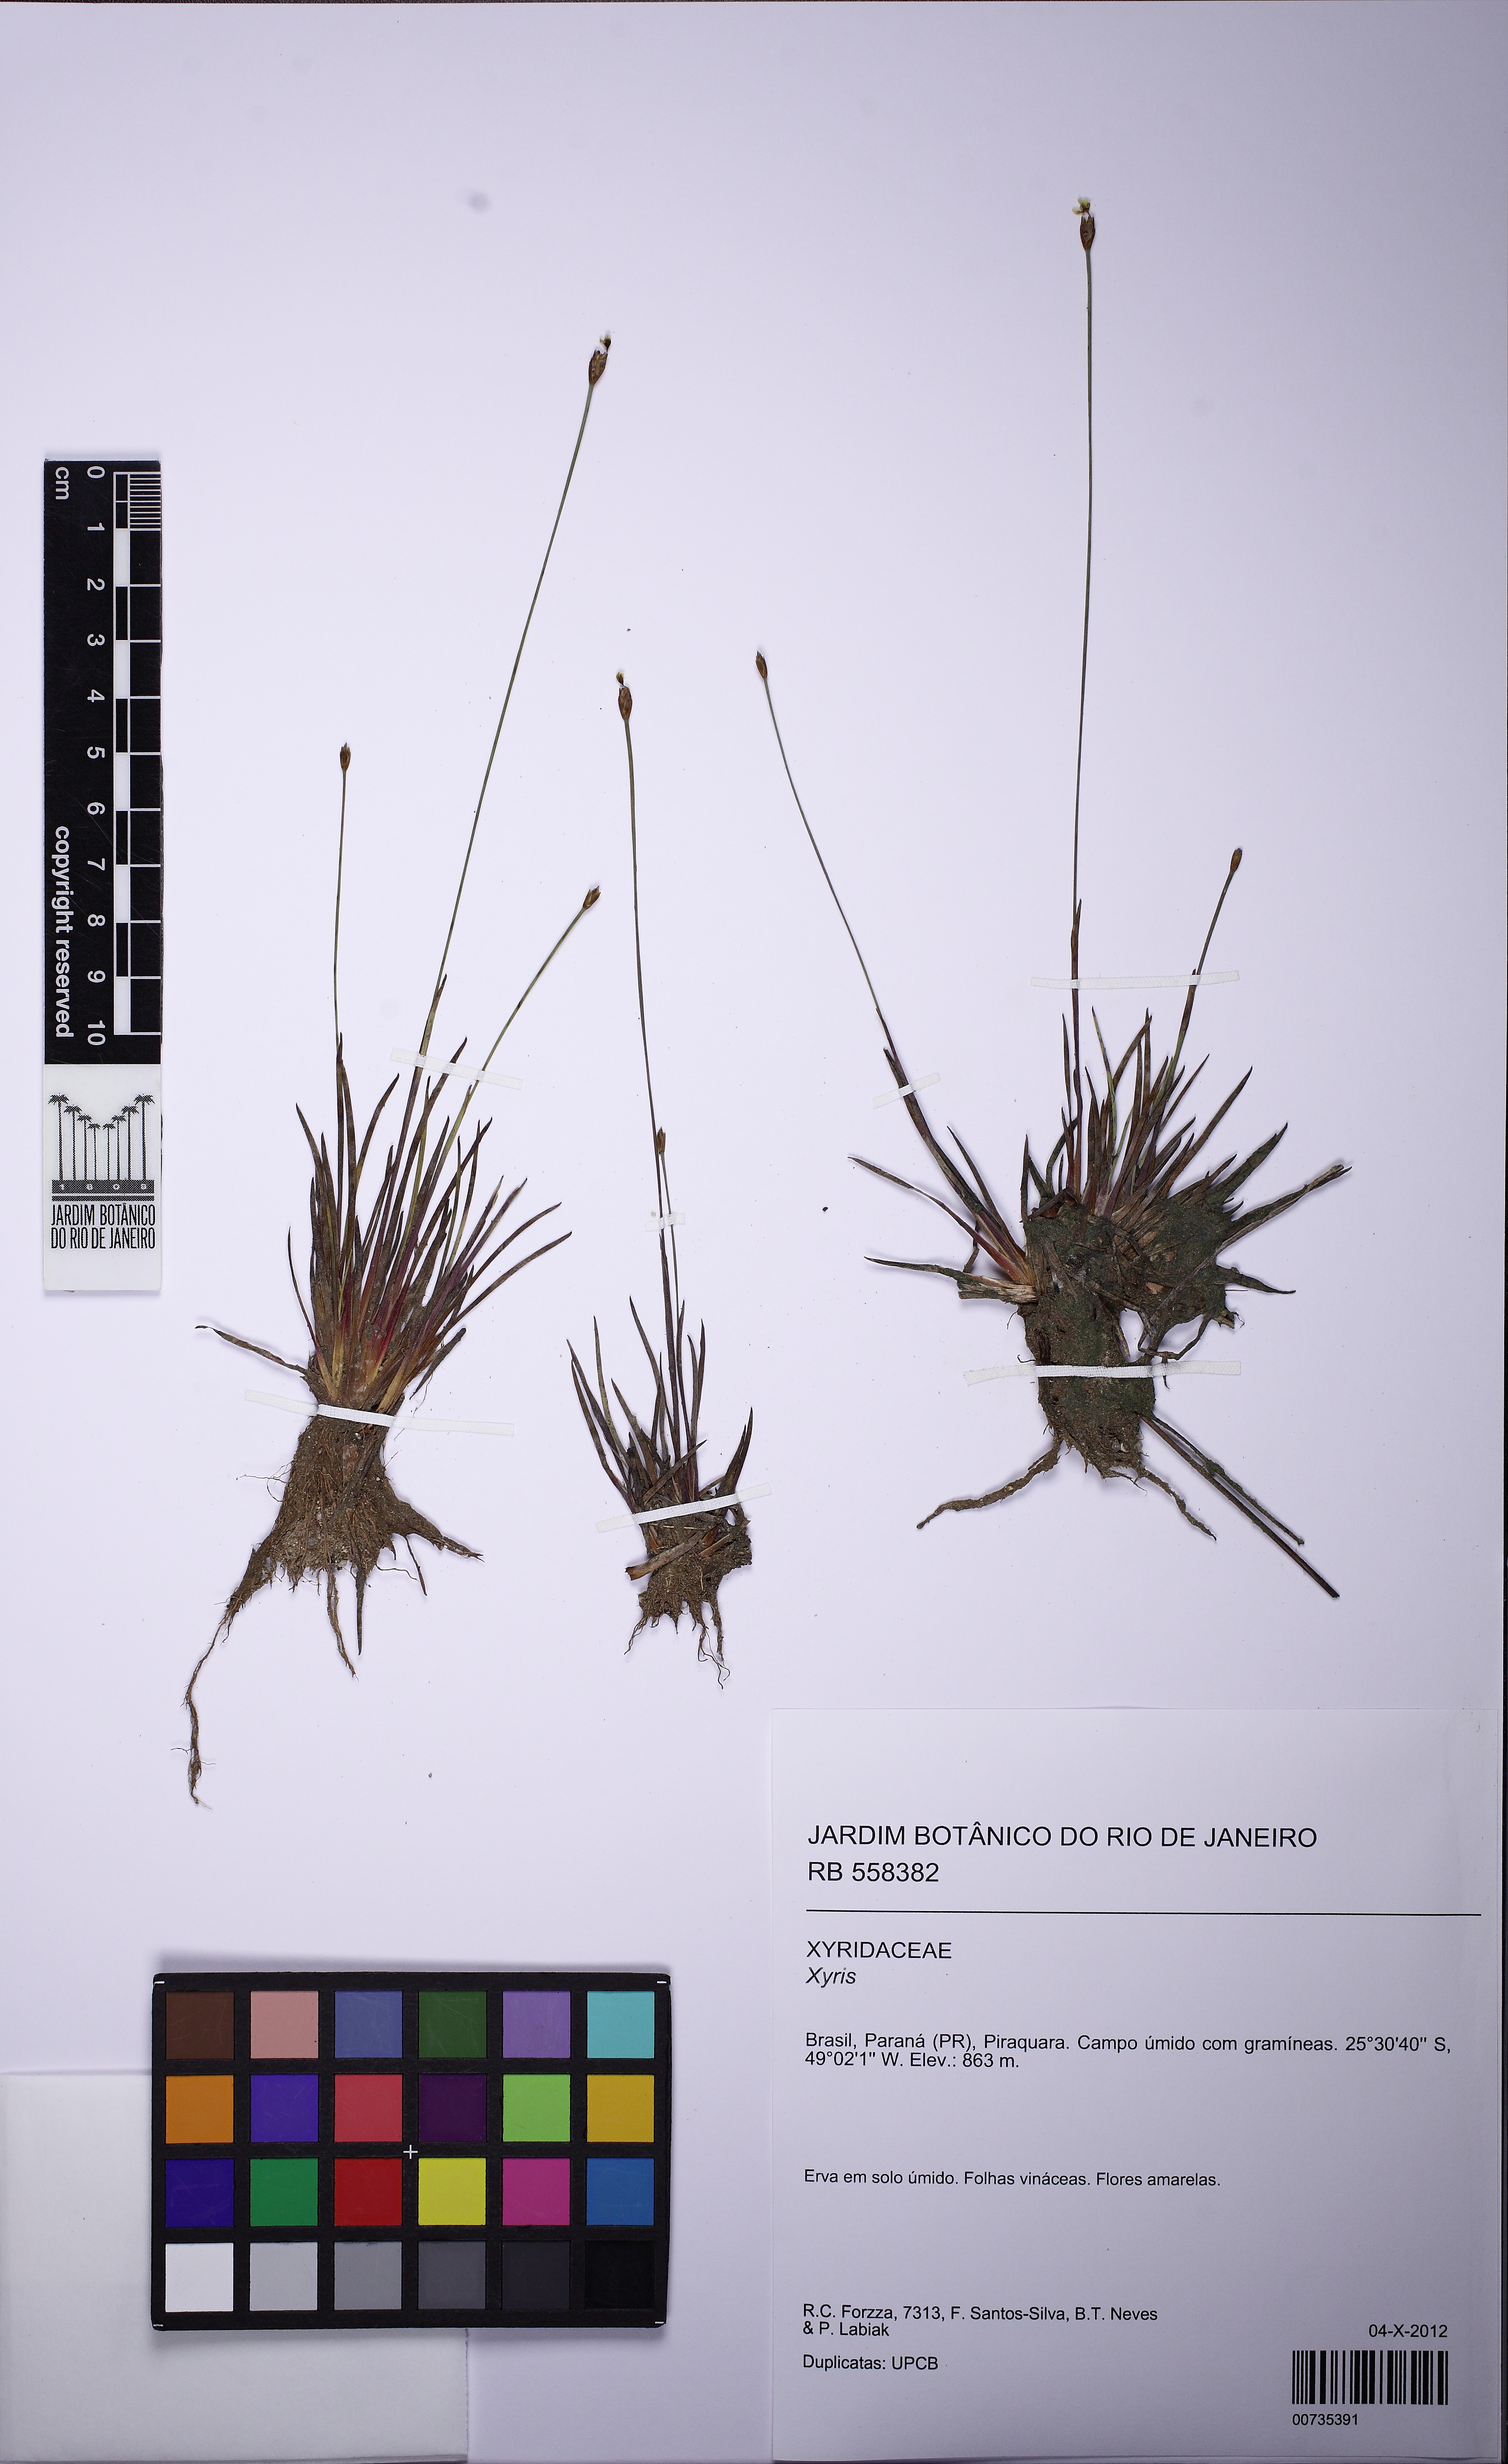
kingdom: Plantae
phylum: Tracheophyta
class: Liliopsida
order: Poales
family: Xyridaceae
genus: Xyris
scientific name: Xyris capensis
